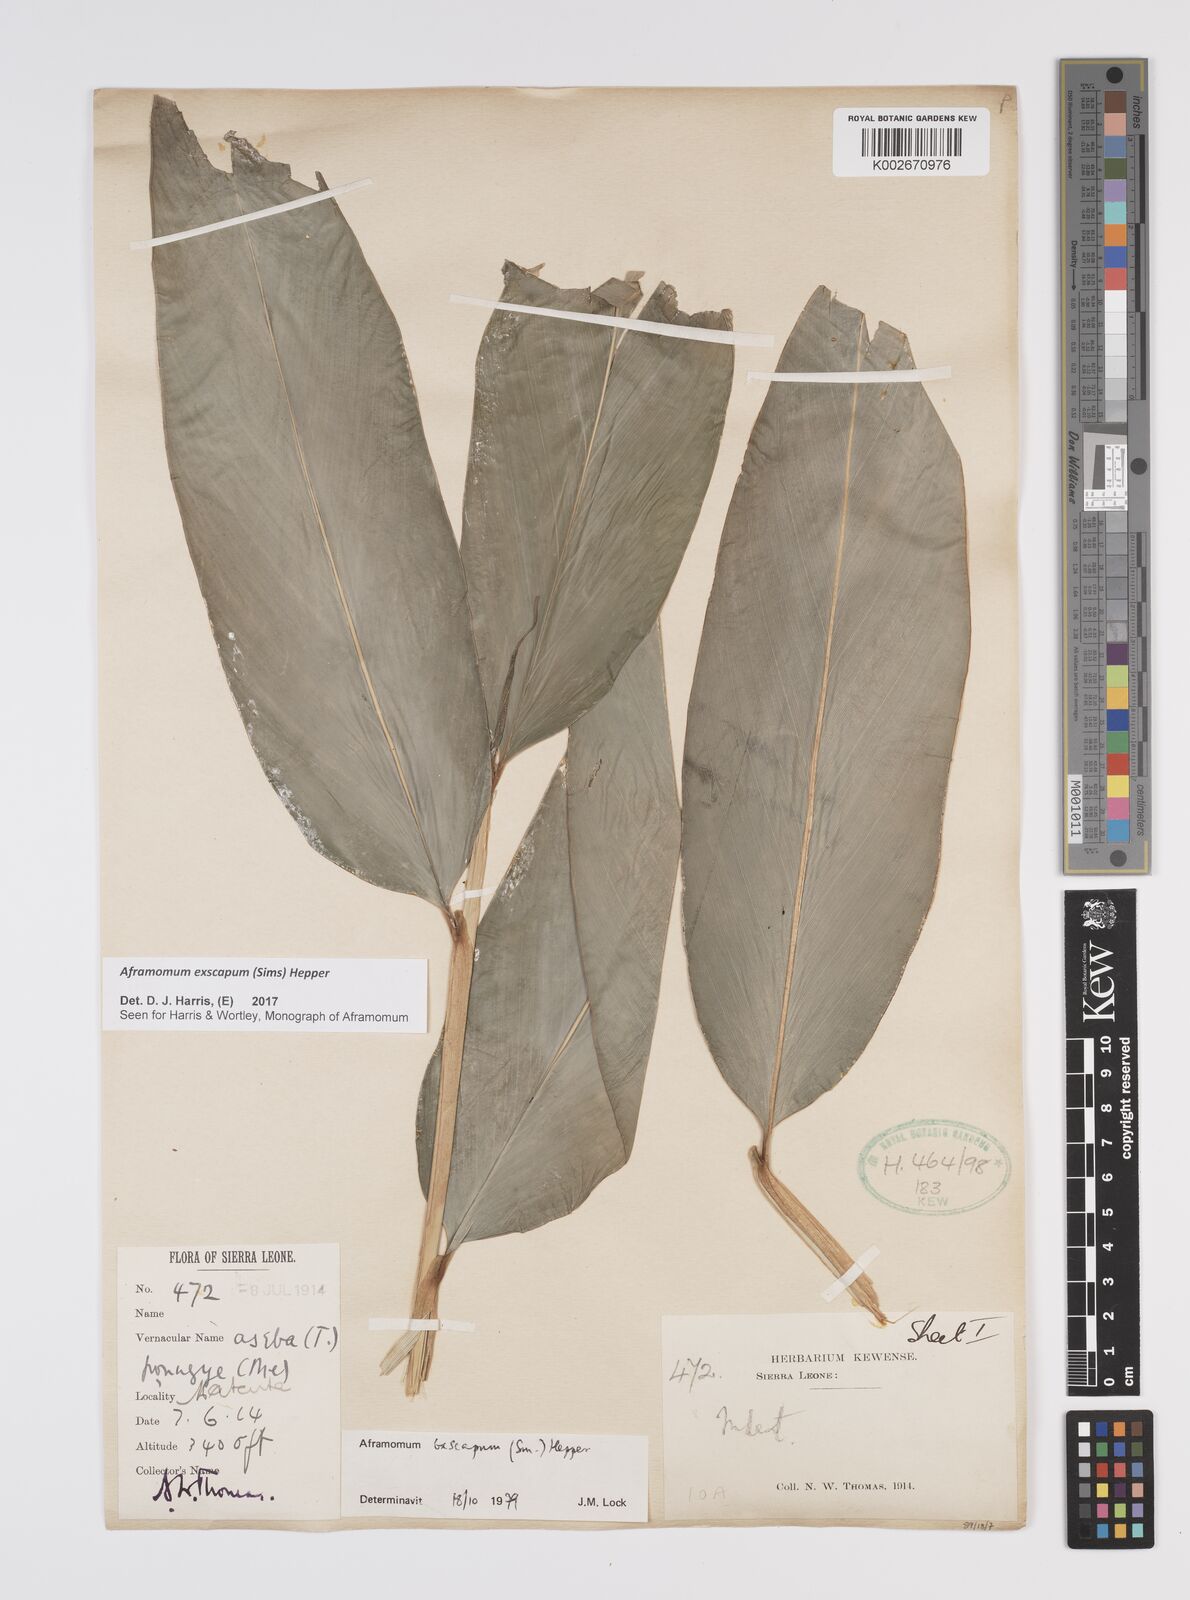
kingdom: Plantae
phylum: Tracheophyta
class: Liliopsida
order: Zingiberales
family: Zingiberaceae
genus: Aframomum
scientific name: Aframomum exscapum
